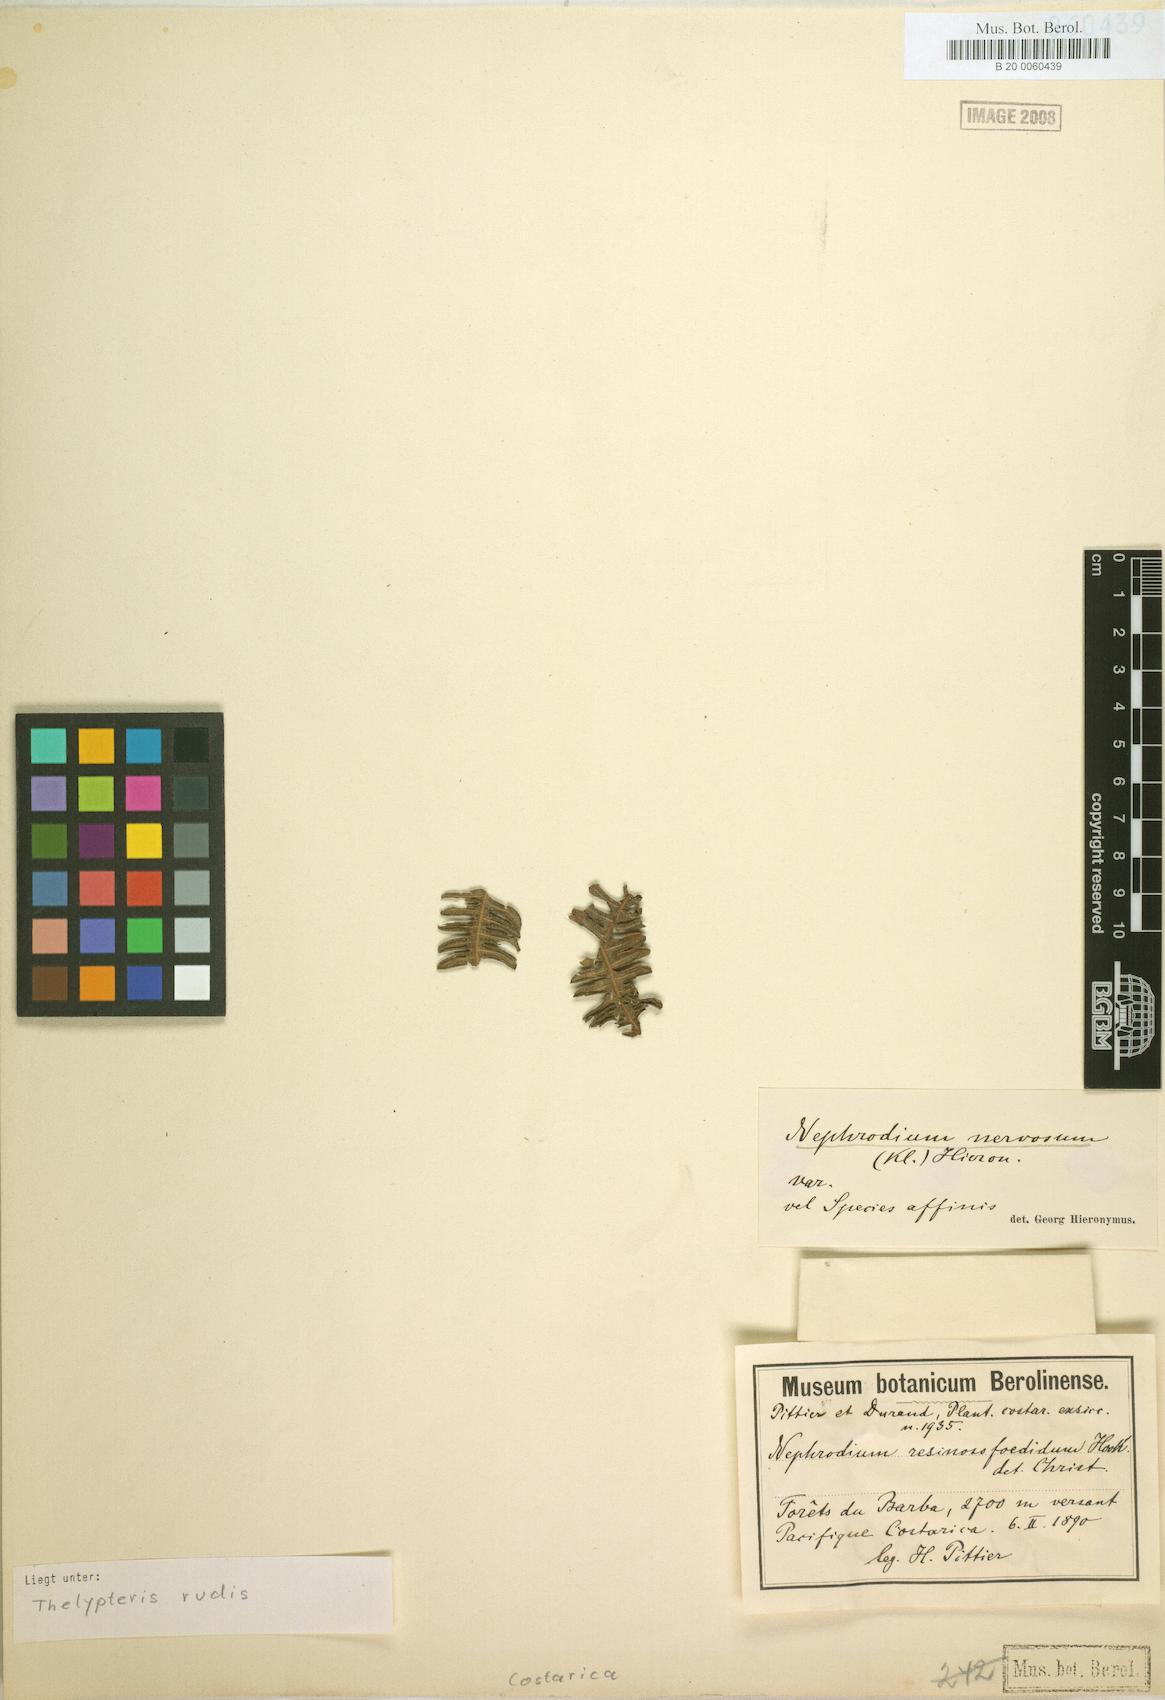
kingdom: Plantae
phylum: Tracheophyta
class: Polypodiopsida
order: Polypodiales
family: Thelypteridaceae
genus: Amauropelta
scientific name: Amauropelta rudis
